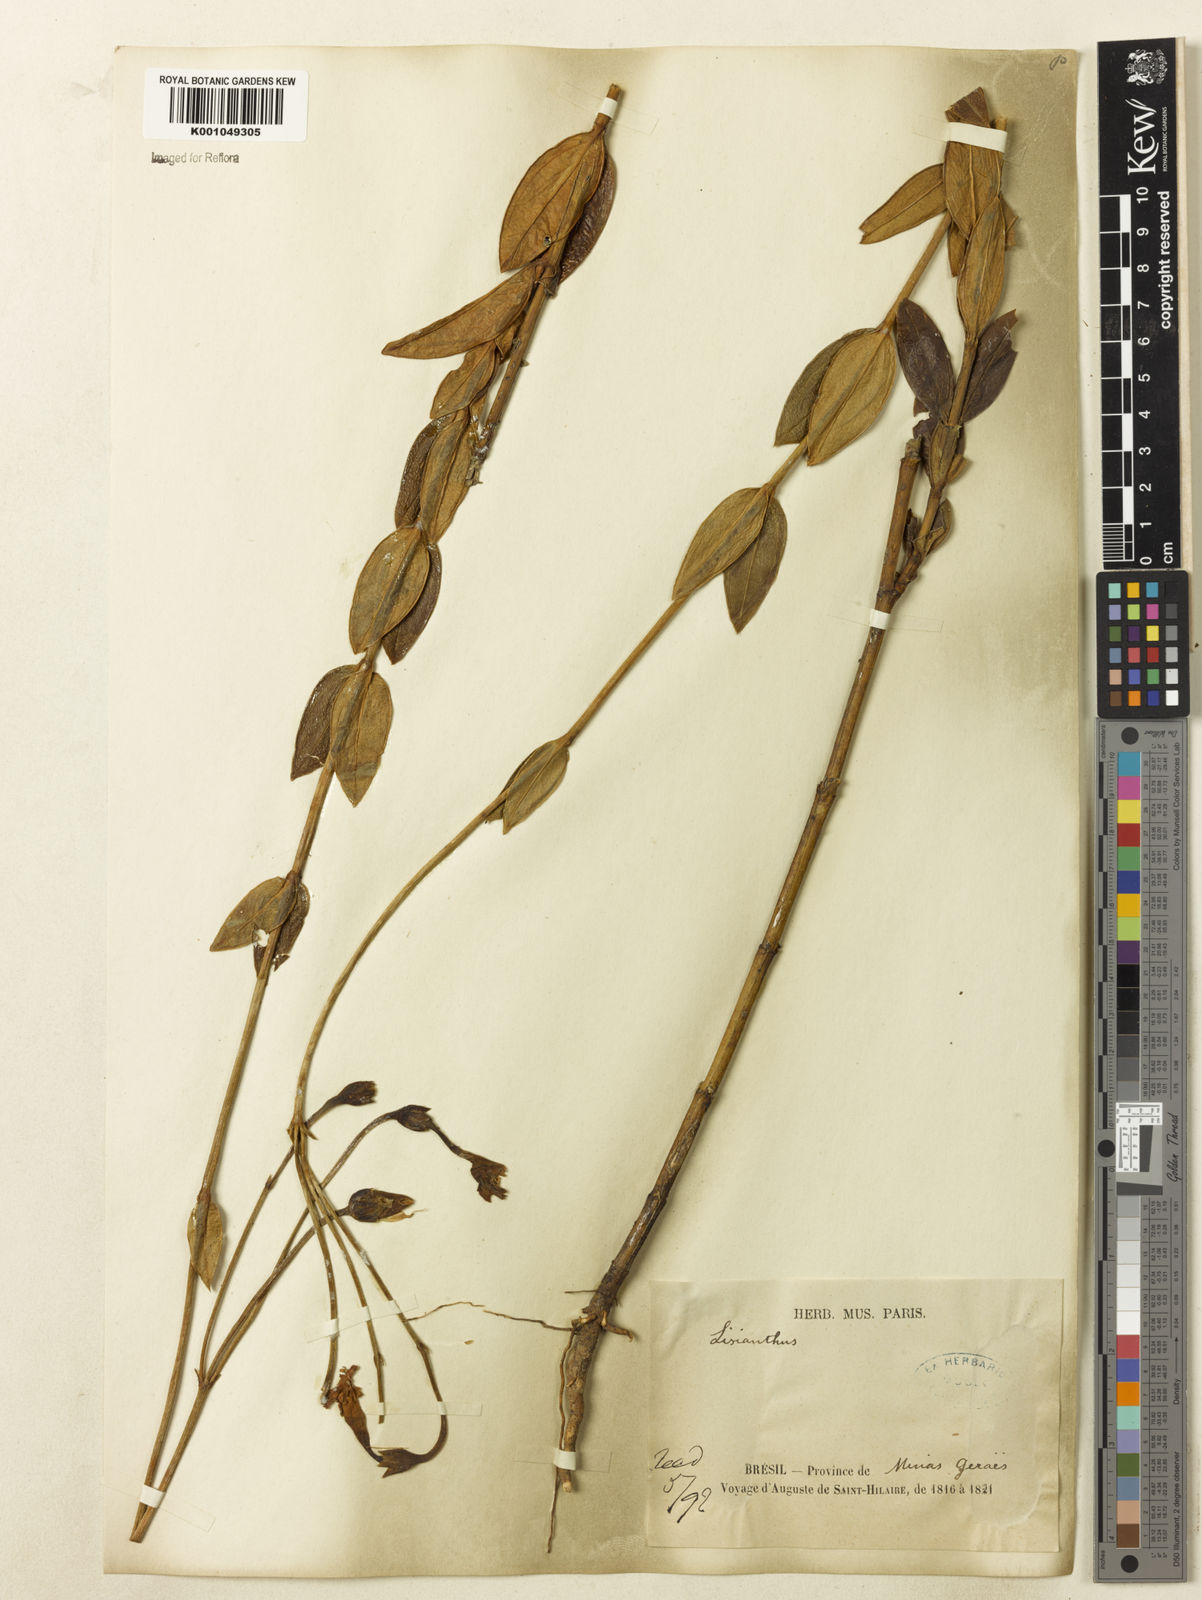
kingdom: Plantae
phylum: Tracheophyta
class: Magnoliopsida
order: Gentianales
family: Gentianaceae
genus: Calolisianthus
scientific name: Calolisianthus pendulus
